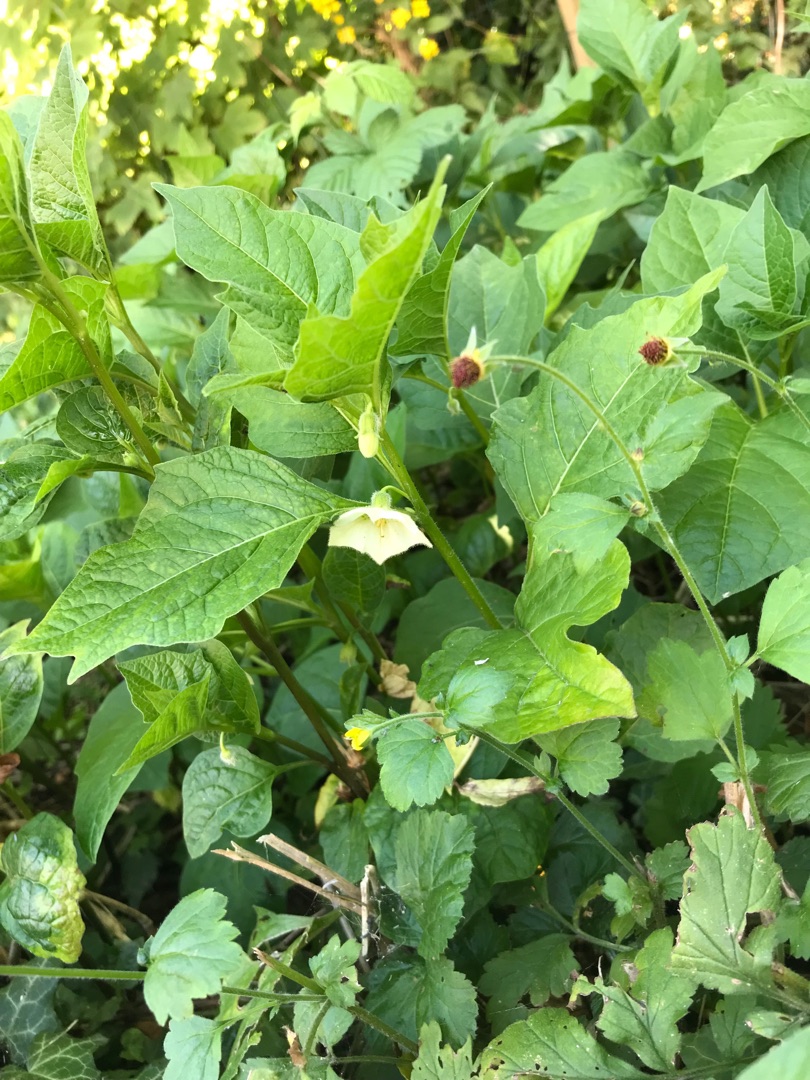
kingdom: Plantae
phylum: Tracheophyta
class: Magnoliopsida
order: Solanales
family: Solanaceae
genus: Alkekengi
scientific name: Alkekengi officinarum
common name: Jødekirsebær
